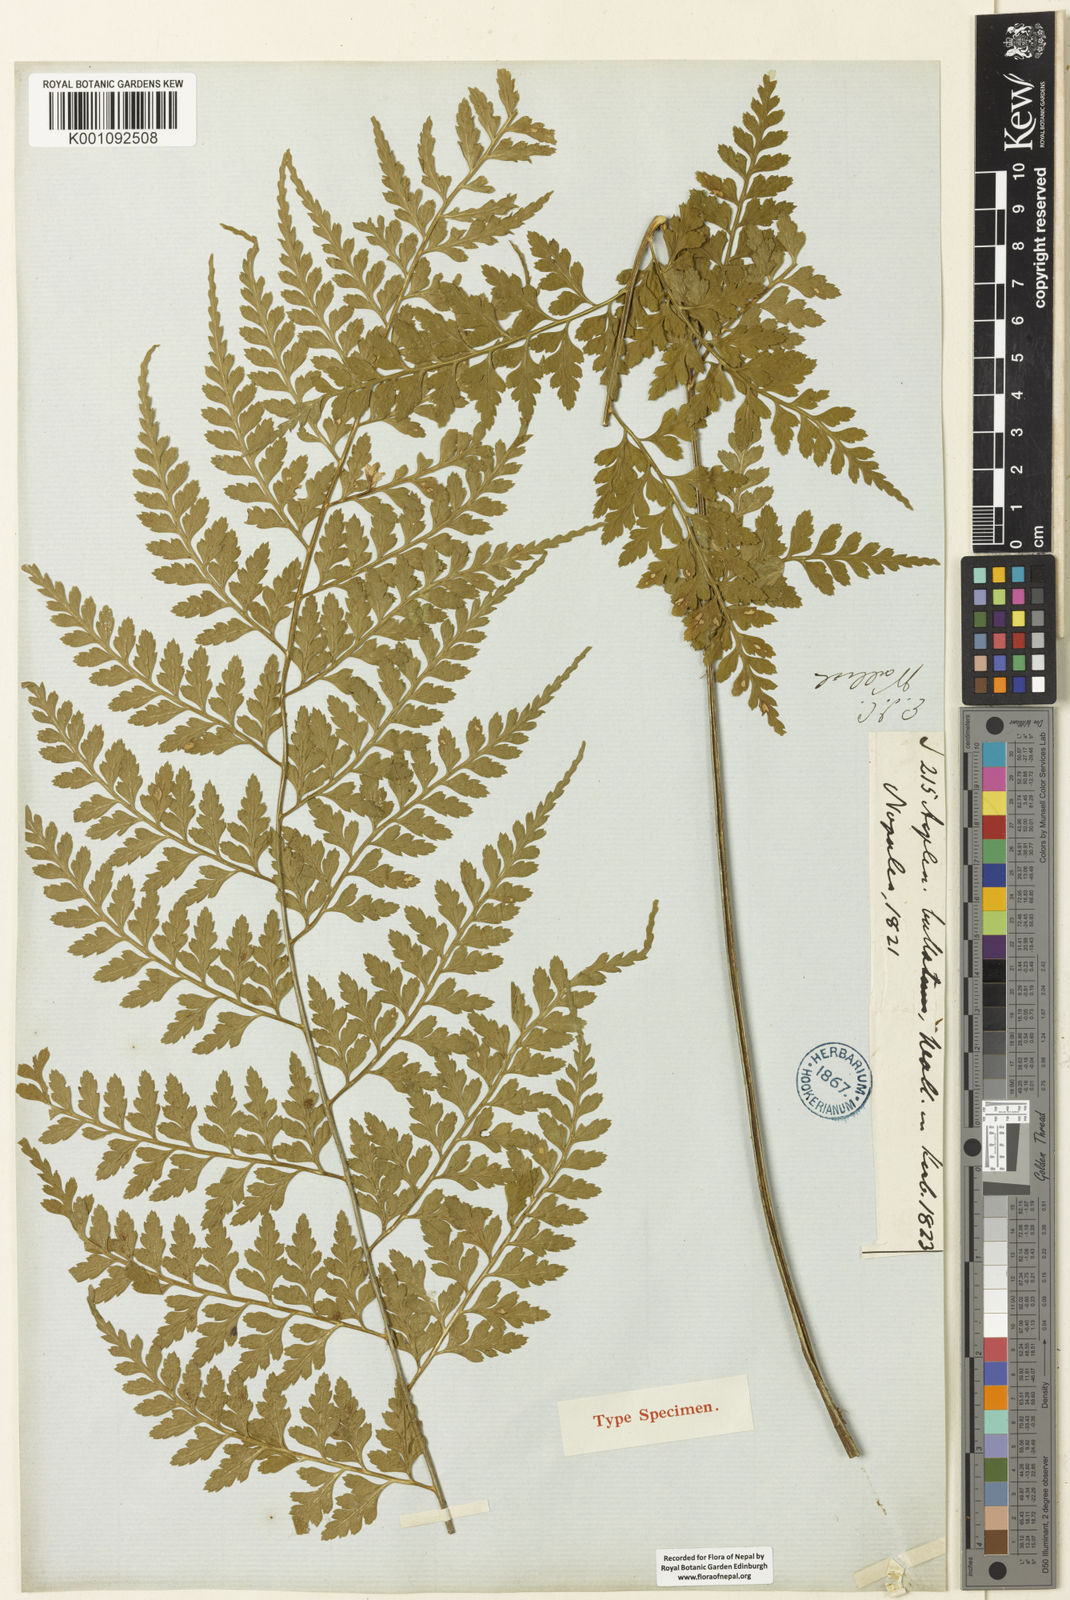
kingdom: Plantae
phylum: Tracheophyta
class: Polypodiopsida
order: Polypodiales
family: Aspleniaceae
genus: Asplenium
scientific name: Asplenium bullatum
